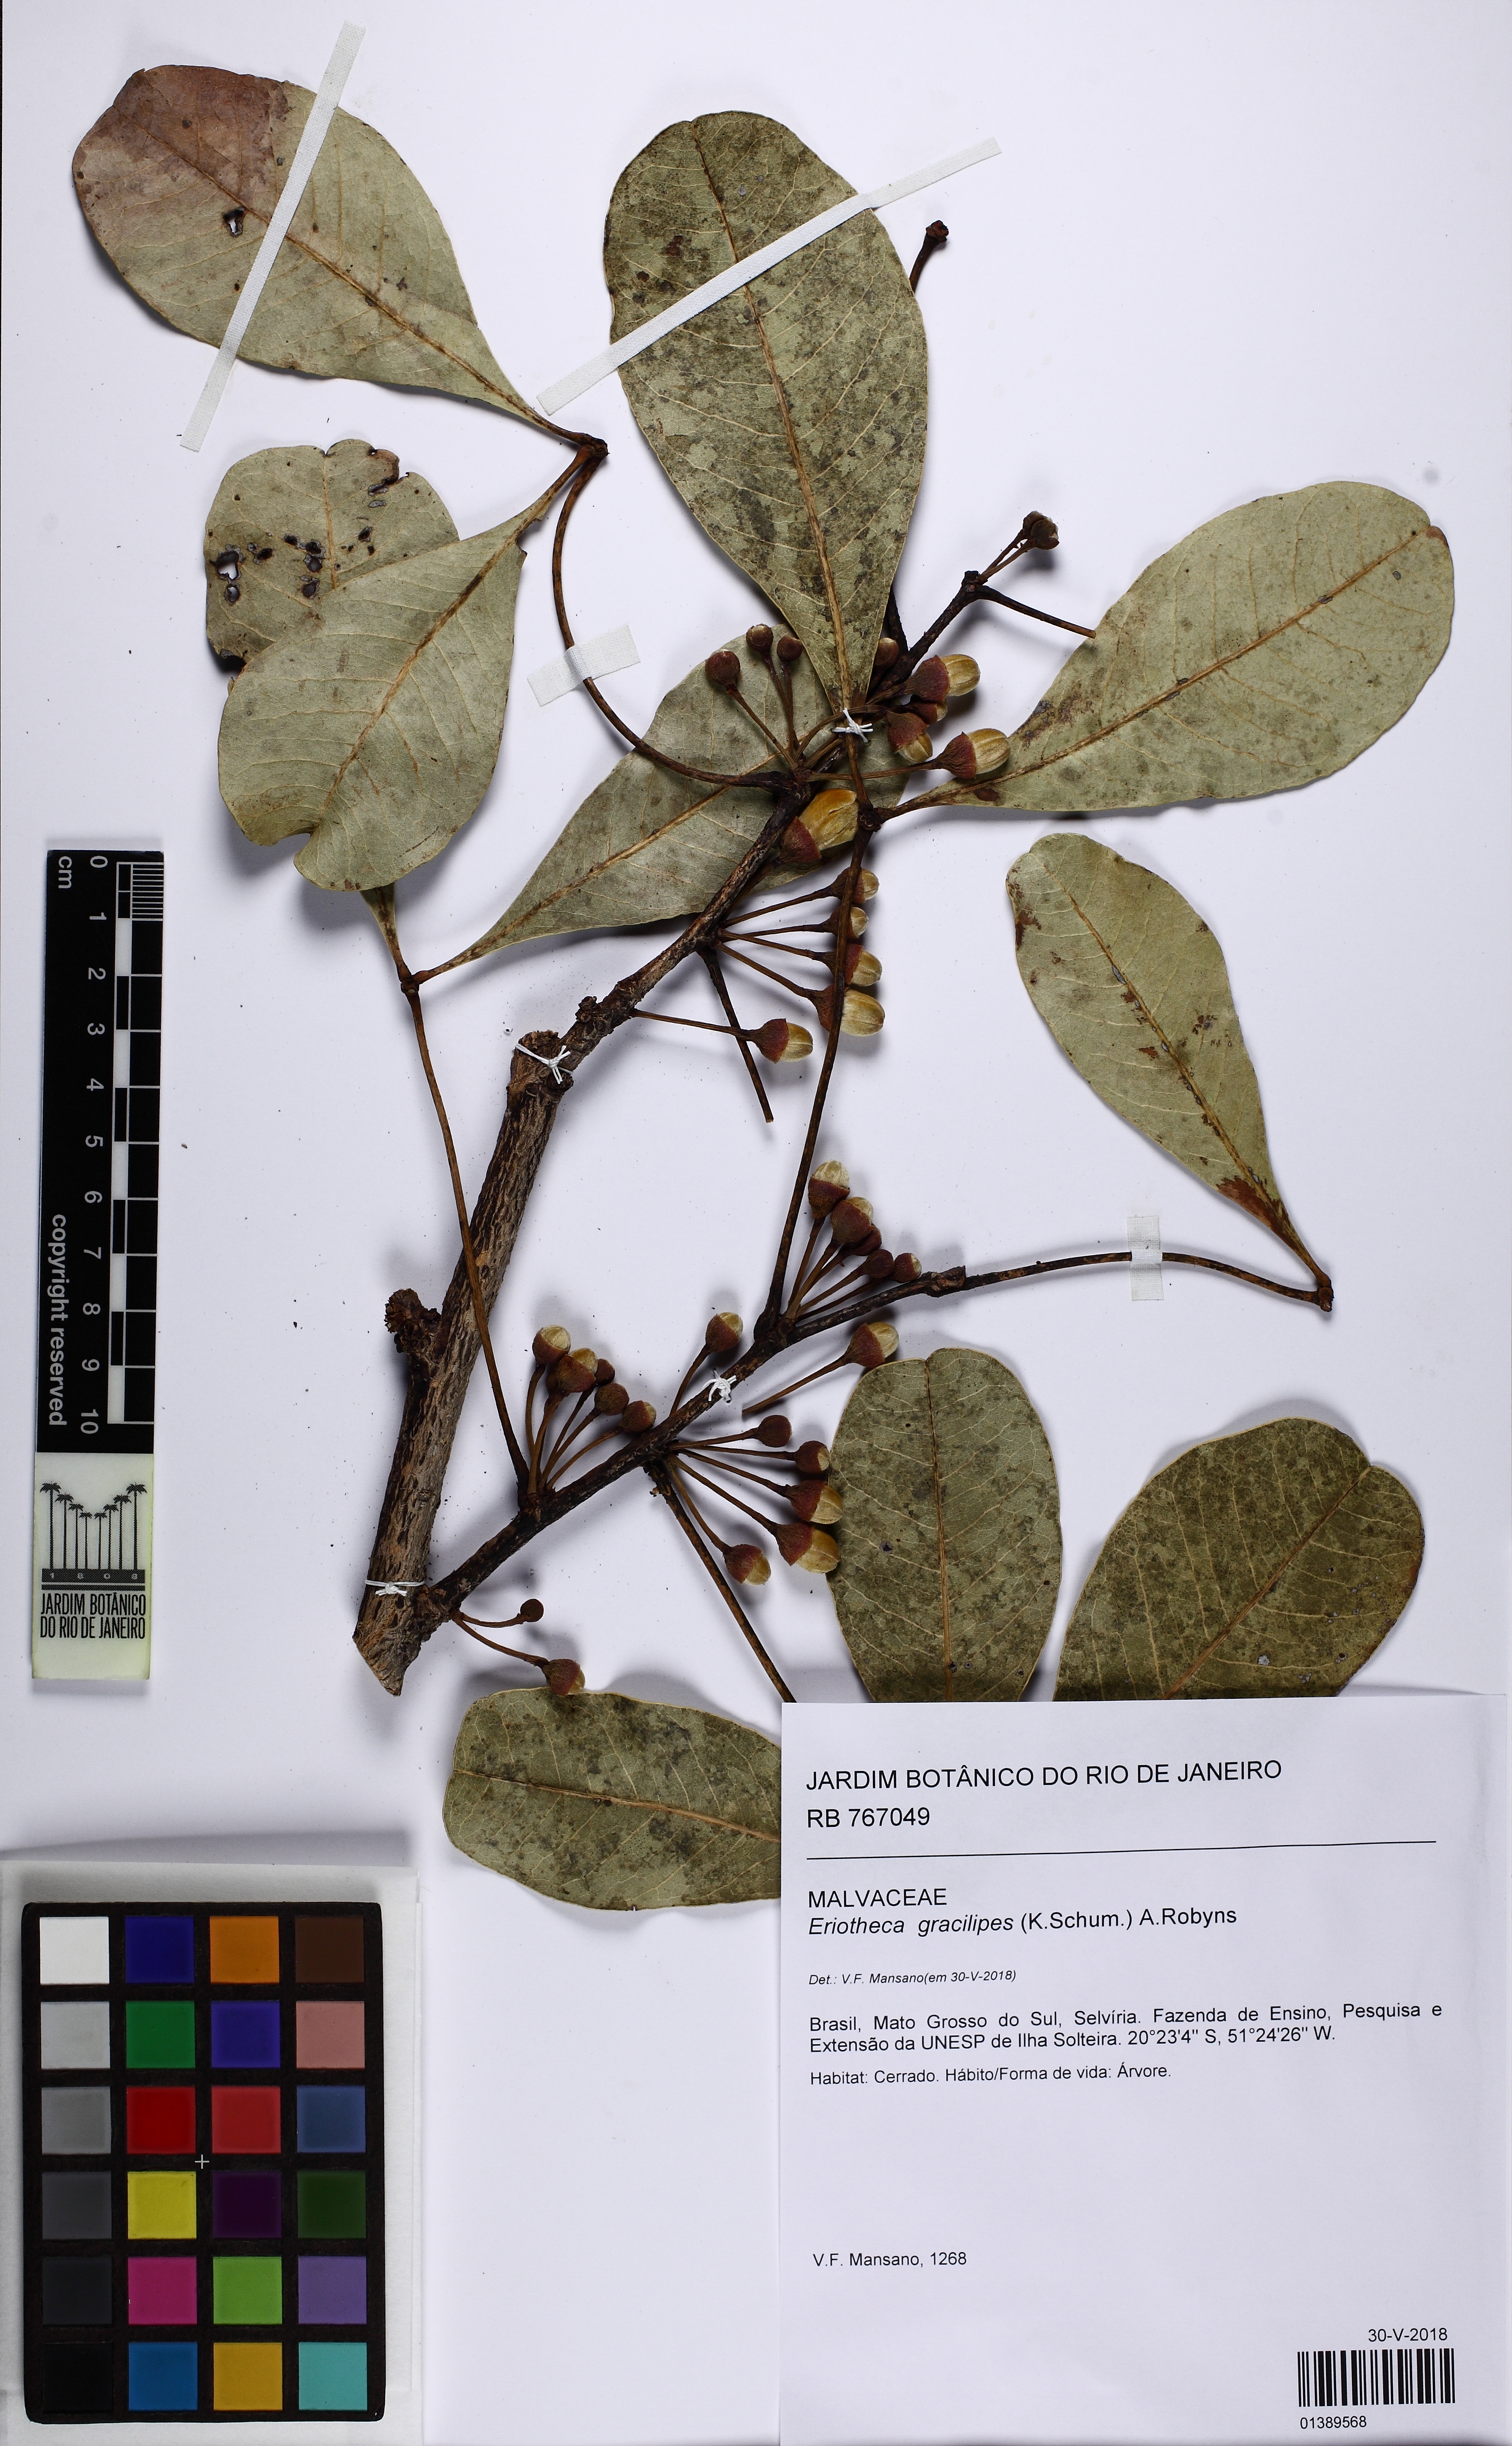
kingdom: Plantae
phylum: Tracheophyta
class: Magnoliopsida
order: Malvales
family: Malvaceae
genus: Eriotheca
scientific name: Eriotheca gracilipes
